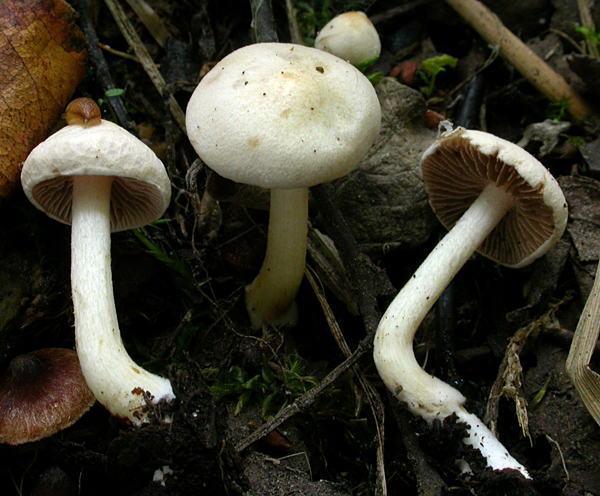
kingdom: Fungi
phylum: Basidiomycota
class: Agaricomycetes
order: Agaricales
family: Hymenogastraceae
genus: Hebeloma
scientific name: Hebeloma nauseosum
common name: storsporet tåreblad
